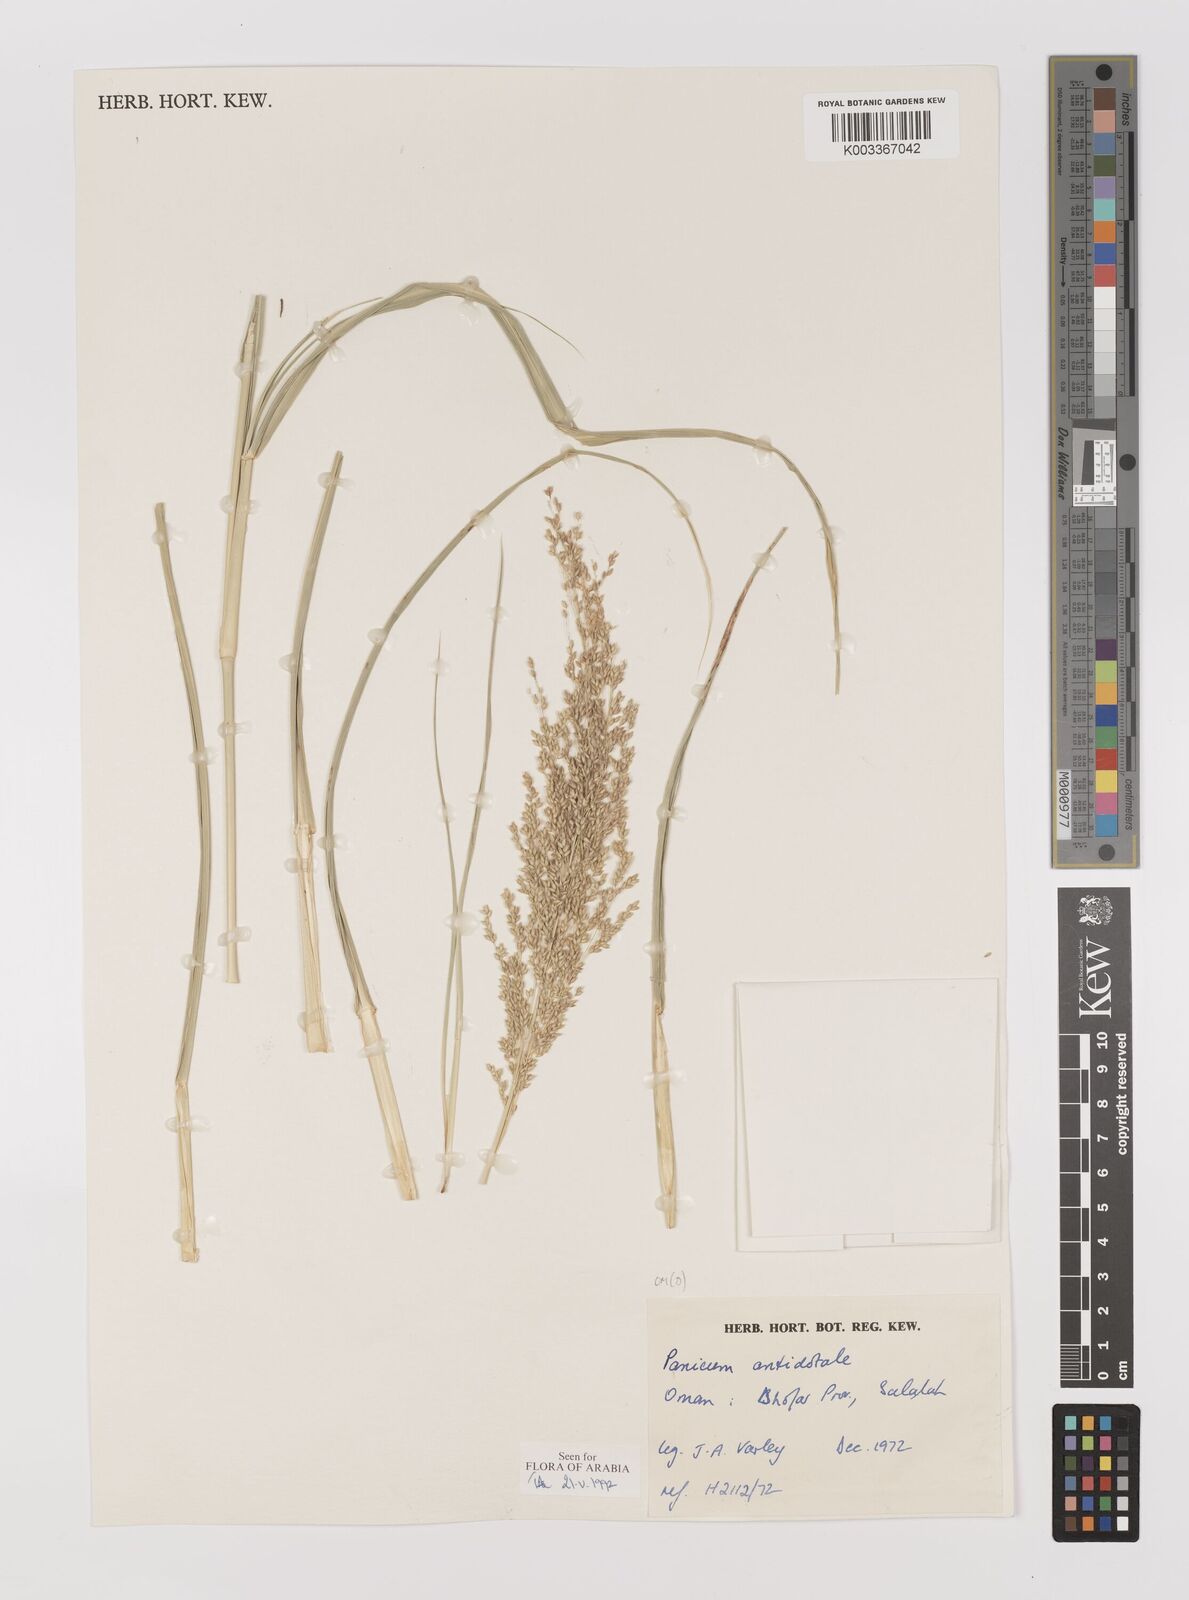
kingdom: Plantae
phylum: Tracheophyta
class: Liliopsida
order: Poales
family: Poaceae
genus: Panicum
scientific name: Panicum antidotale
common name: Blue panicum
